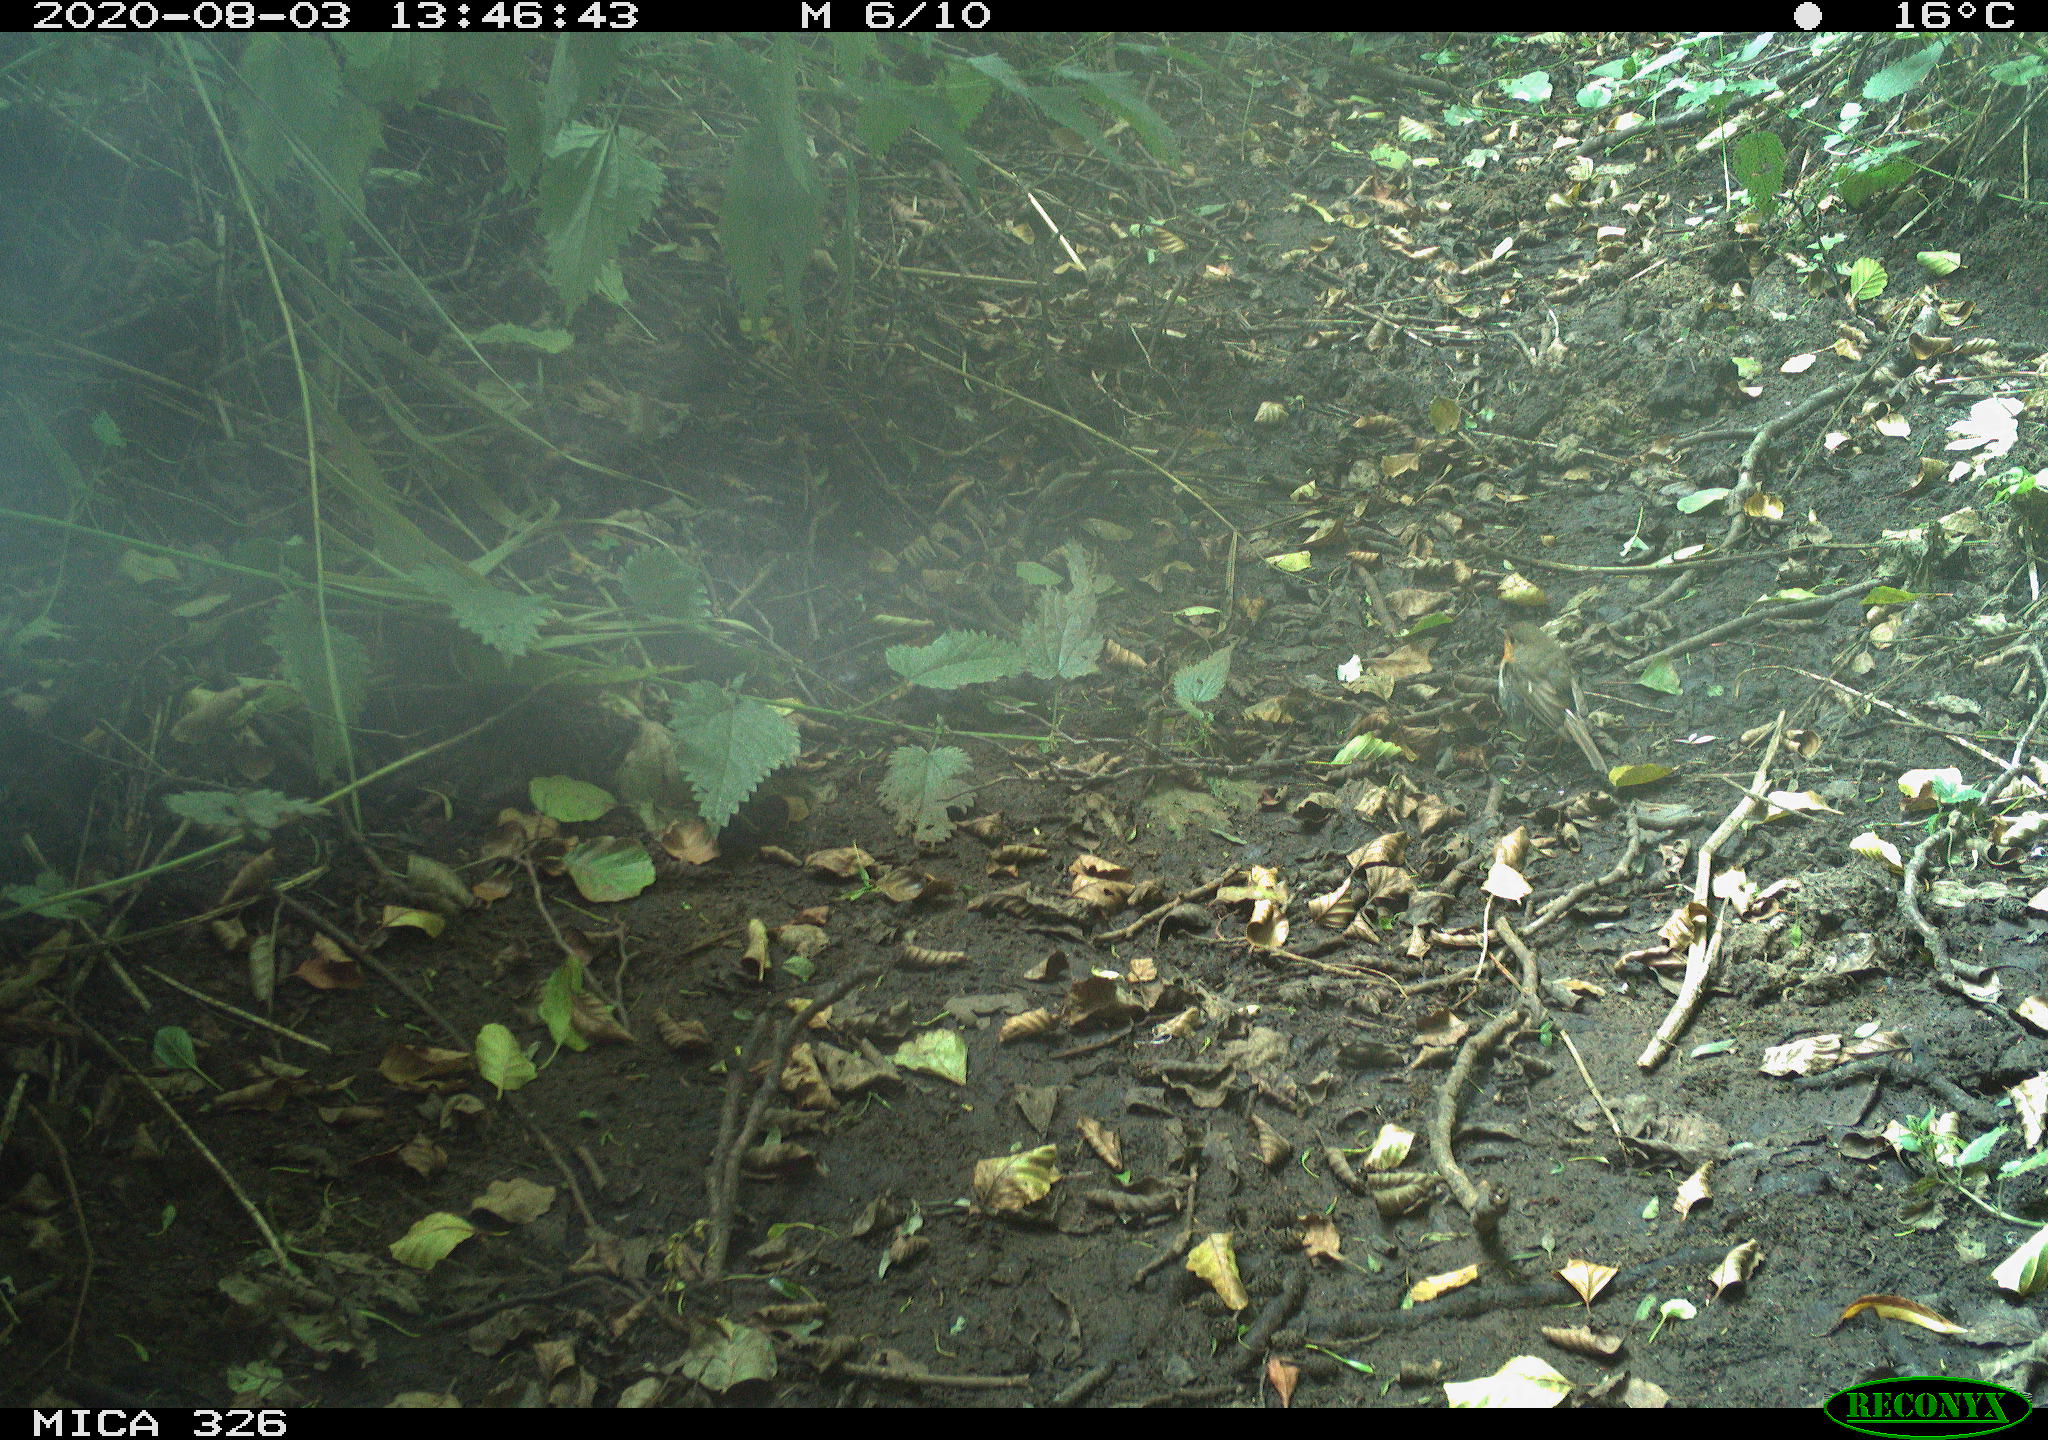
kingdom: Animalia
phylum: Chordata
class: Aves
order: Passeriformes
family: Muscicapidae
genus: Erithacus
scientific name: Erithacus rubecula
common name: European robin
